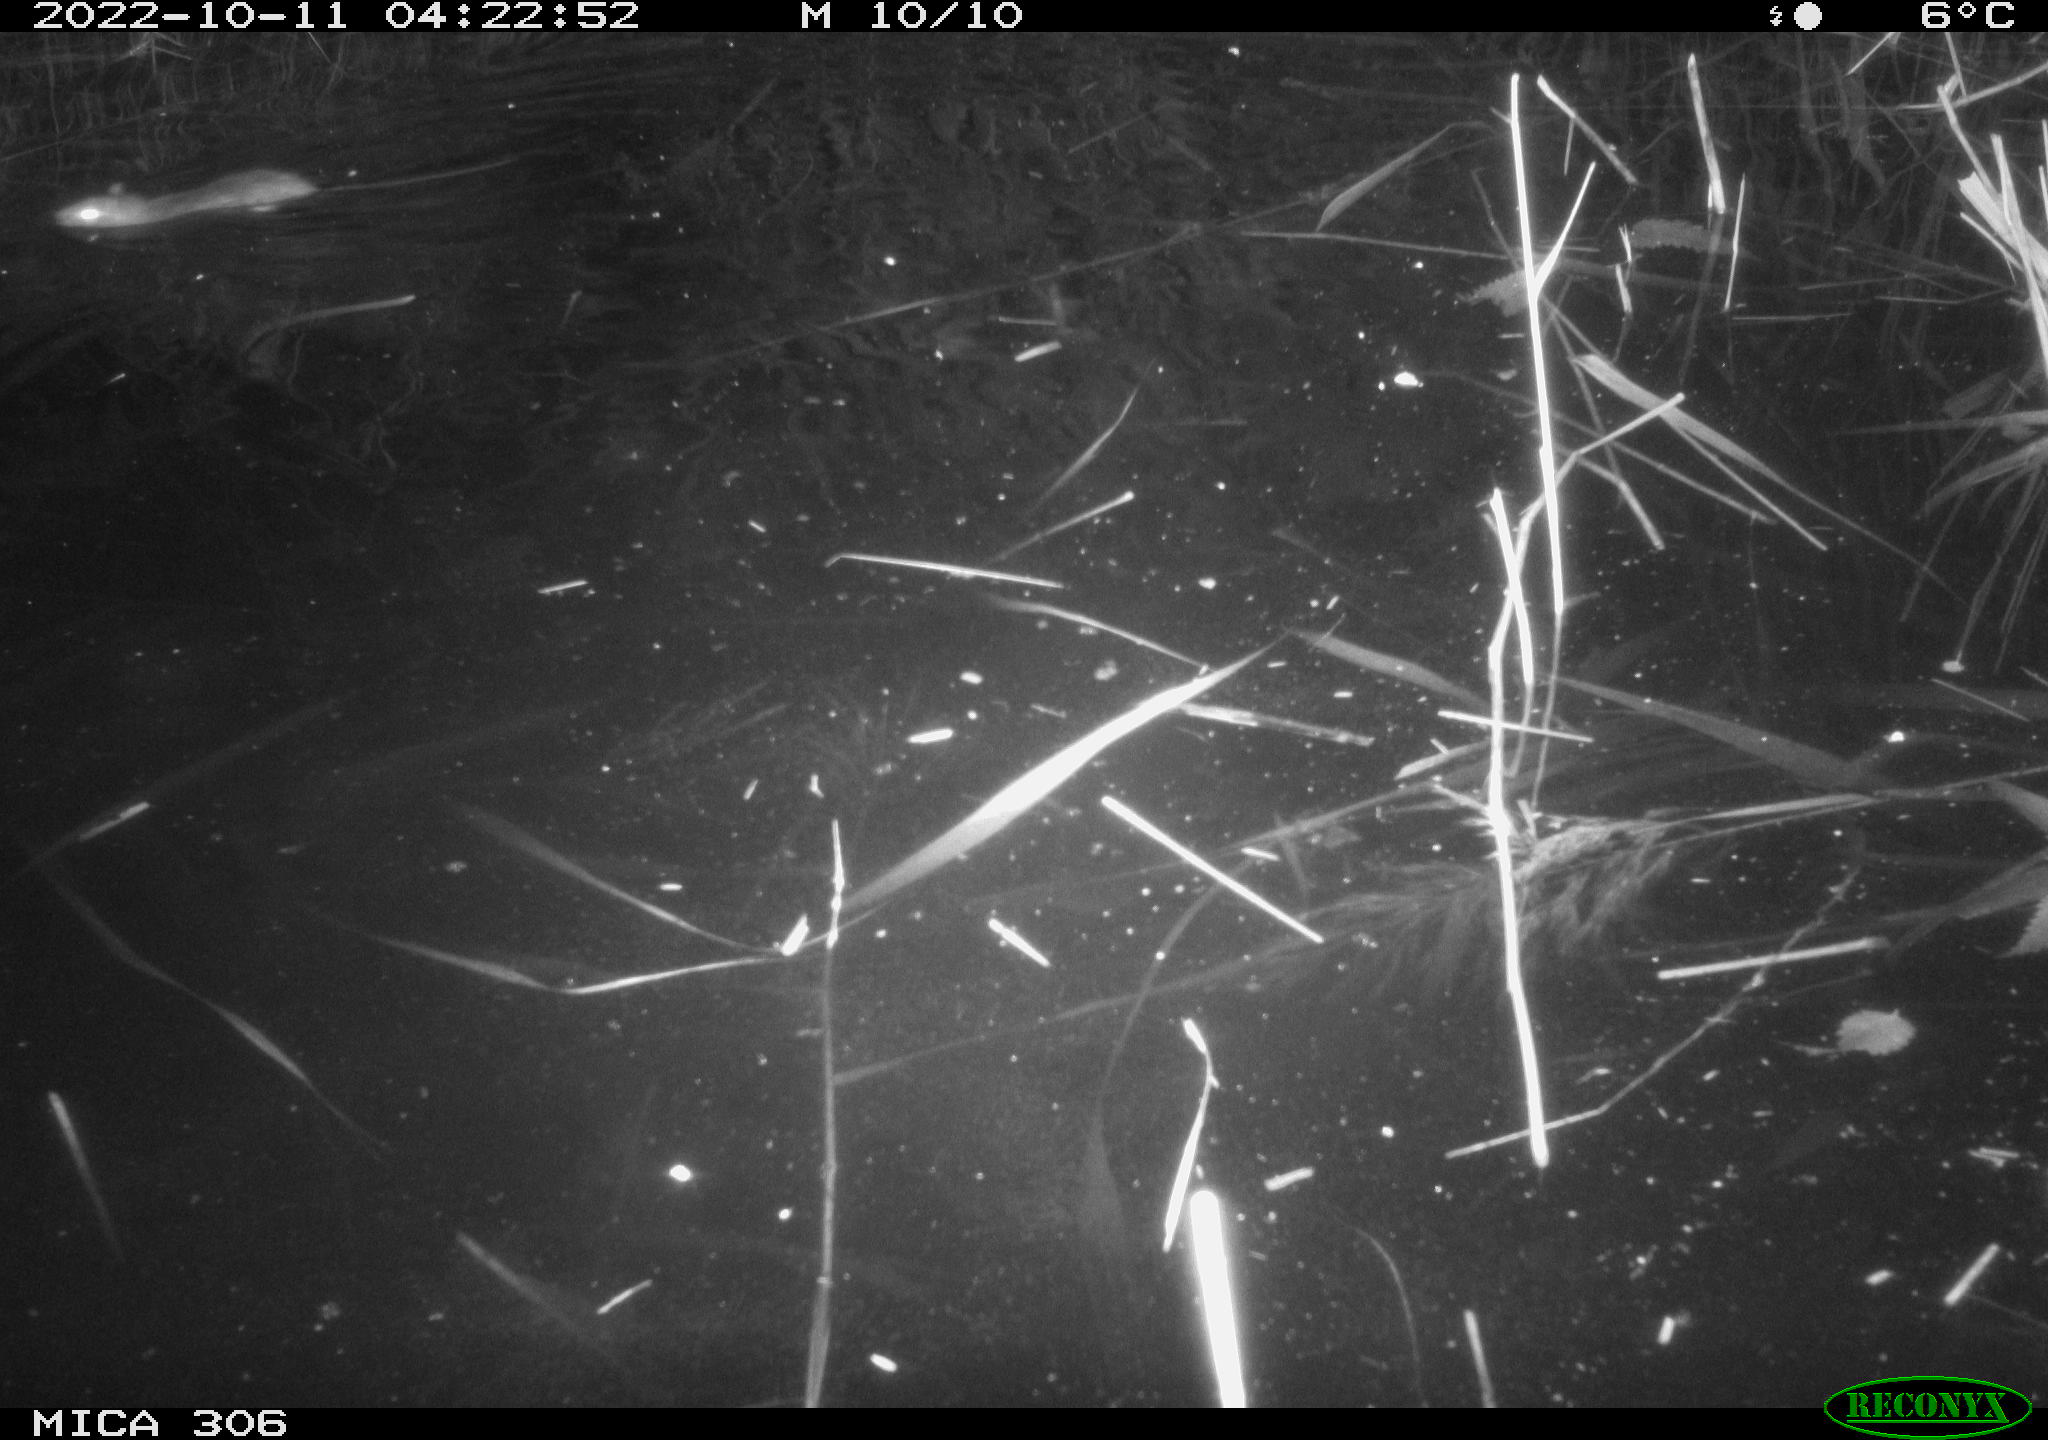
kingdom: Animalia
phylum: Chordata
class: Mammalia
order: Rodentia
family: Muridae
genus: Rattus
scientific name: Rattus norvegicus
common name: Brown rat
